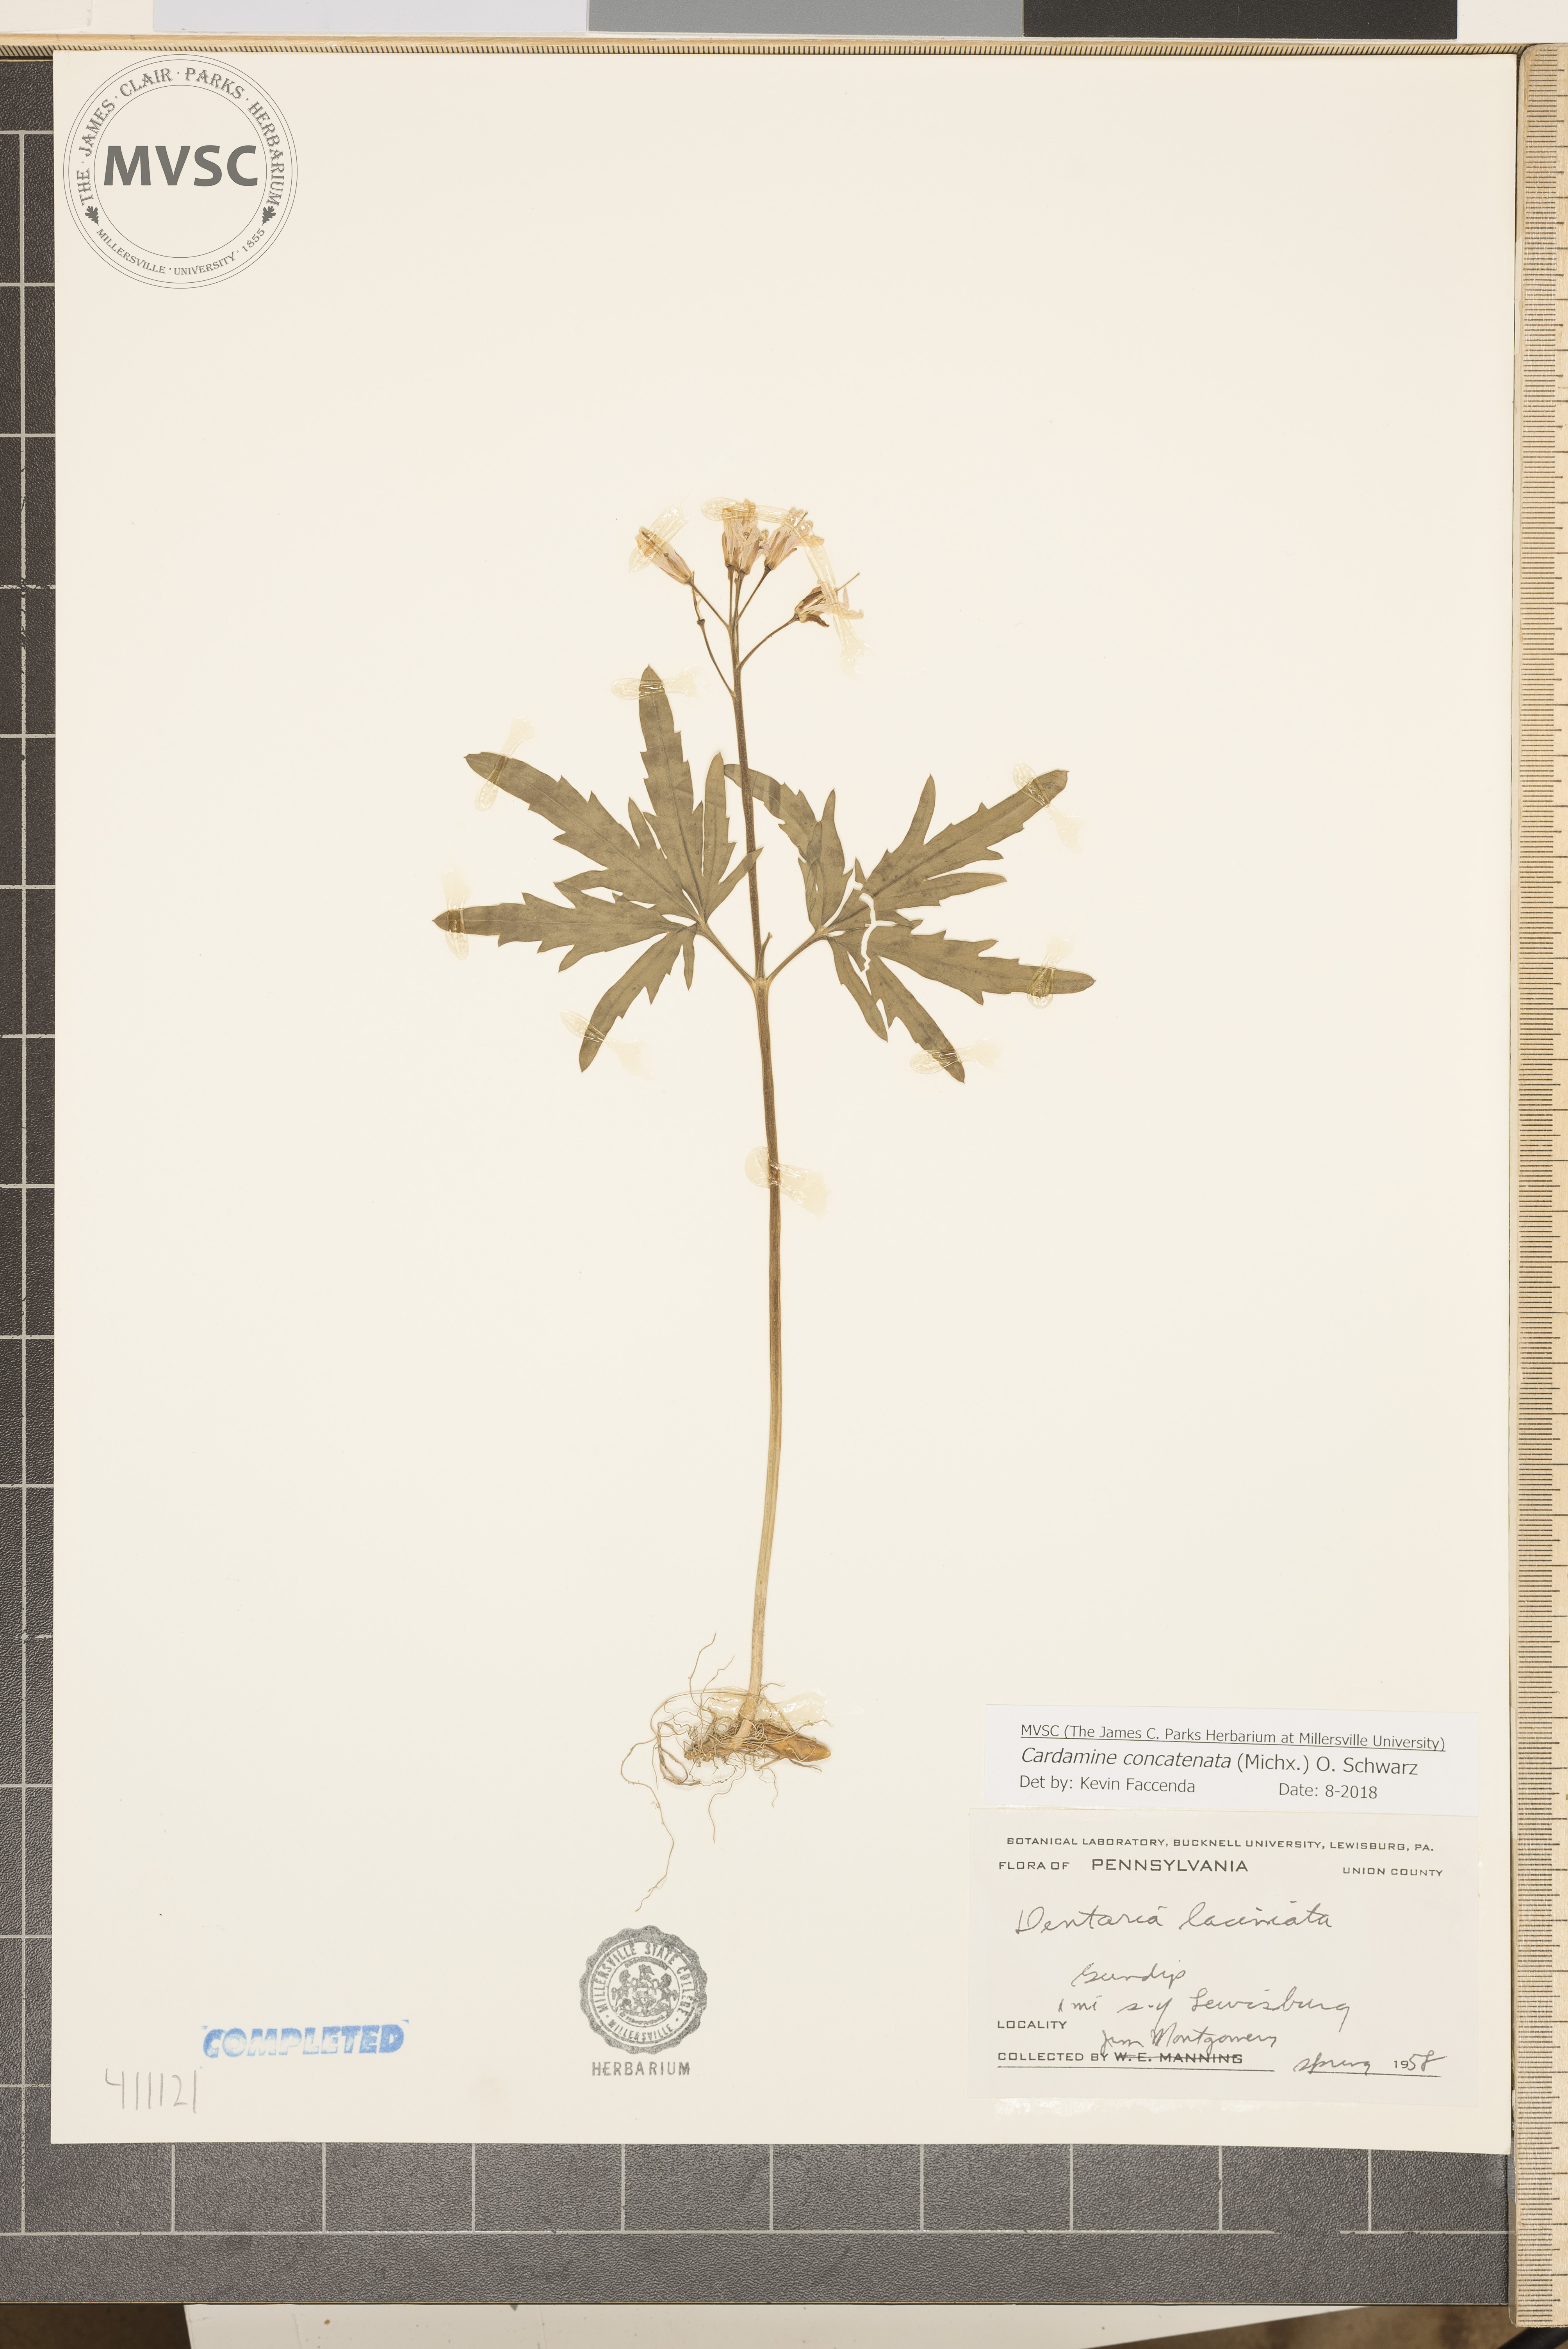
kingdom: Plantae
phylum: Tracheophyta
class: Magnoliopsida
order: Brassicales
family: Brassicaceae
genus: Cardamine
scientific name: Cardamine concatenata
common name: Cut-leaf toothcup
